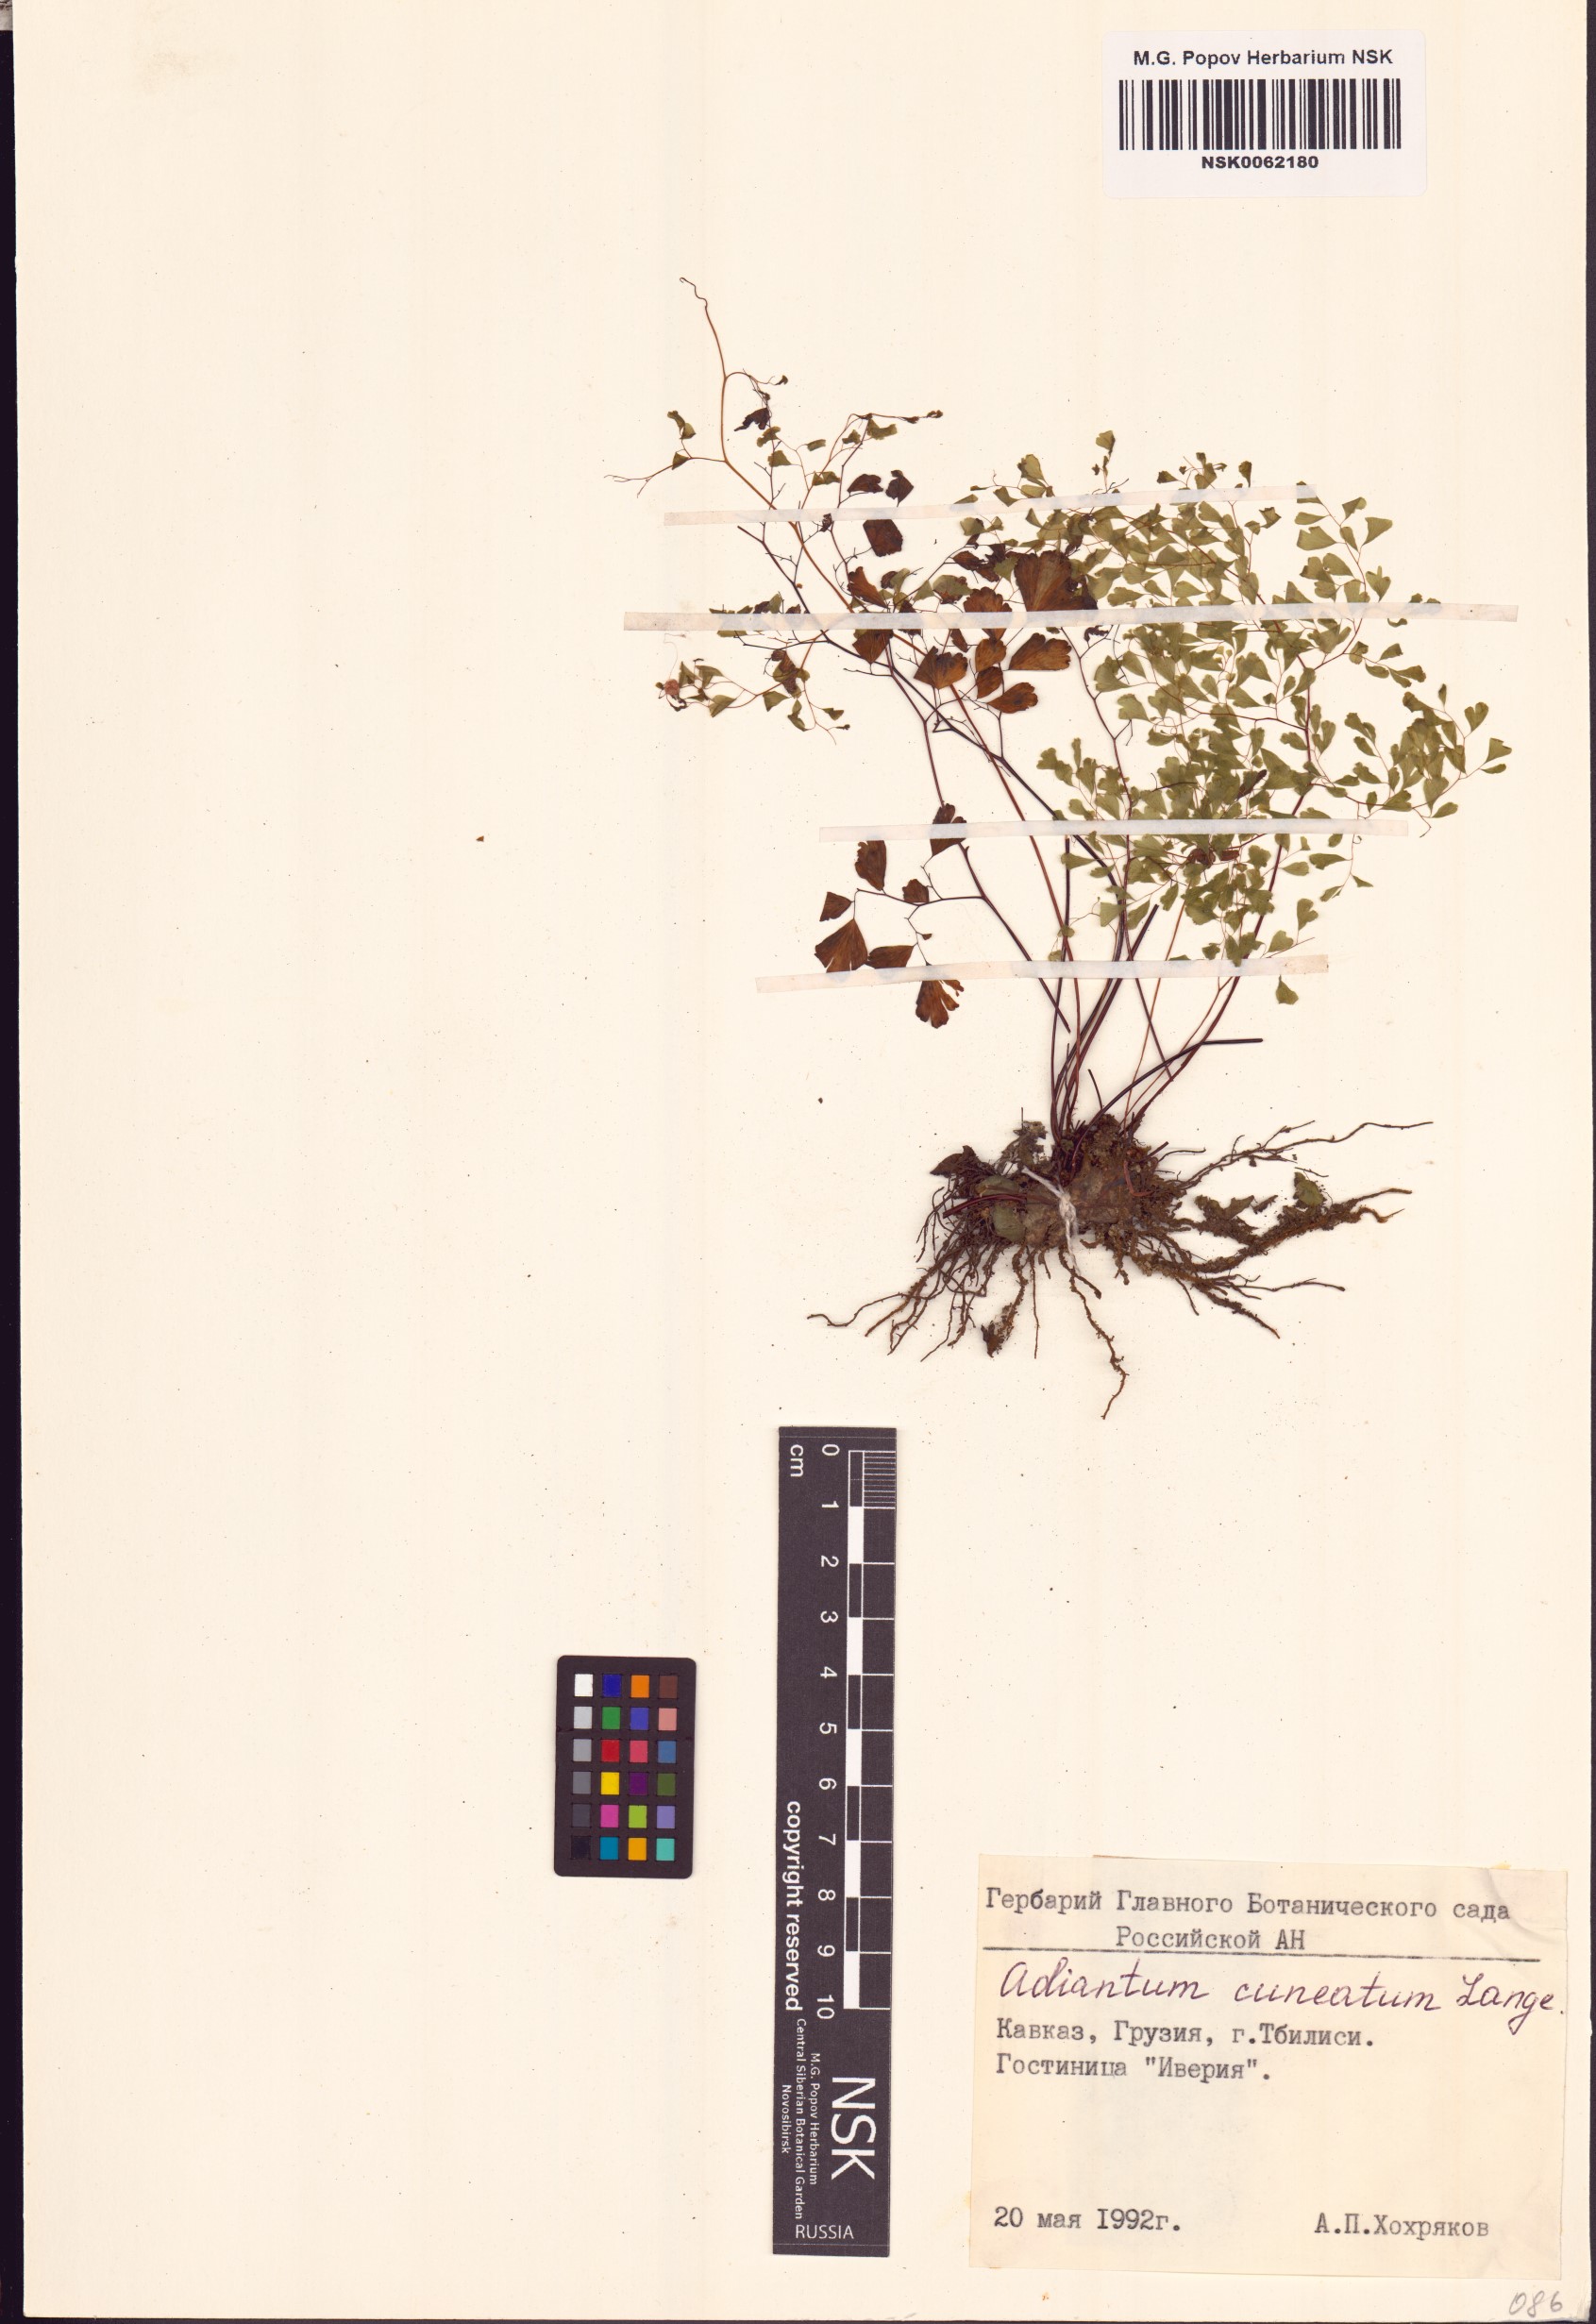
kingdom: Plantae
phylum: Tracheophyta
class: Polypodiopsida
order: Polypodiales
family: Pteridaceae
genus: Adiantum
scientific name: Adiantum raddianum
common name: Delta maidenhair fern
